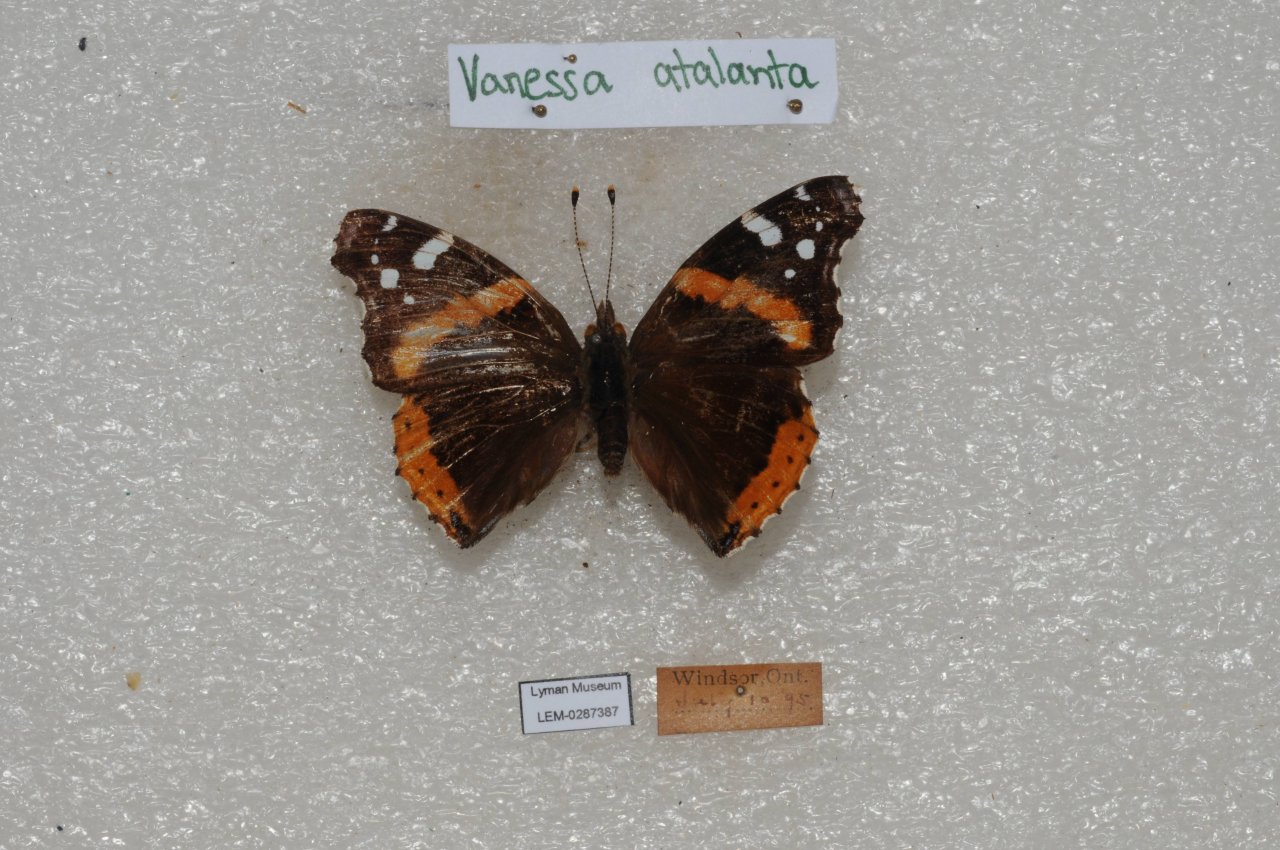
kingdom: Animalia
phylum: Arthropoda
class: Insecta
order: Lepidoptera
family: Nymphalidae
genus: Vanessa
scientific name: Vanessa atalanta
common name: Red Admiral
